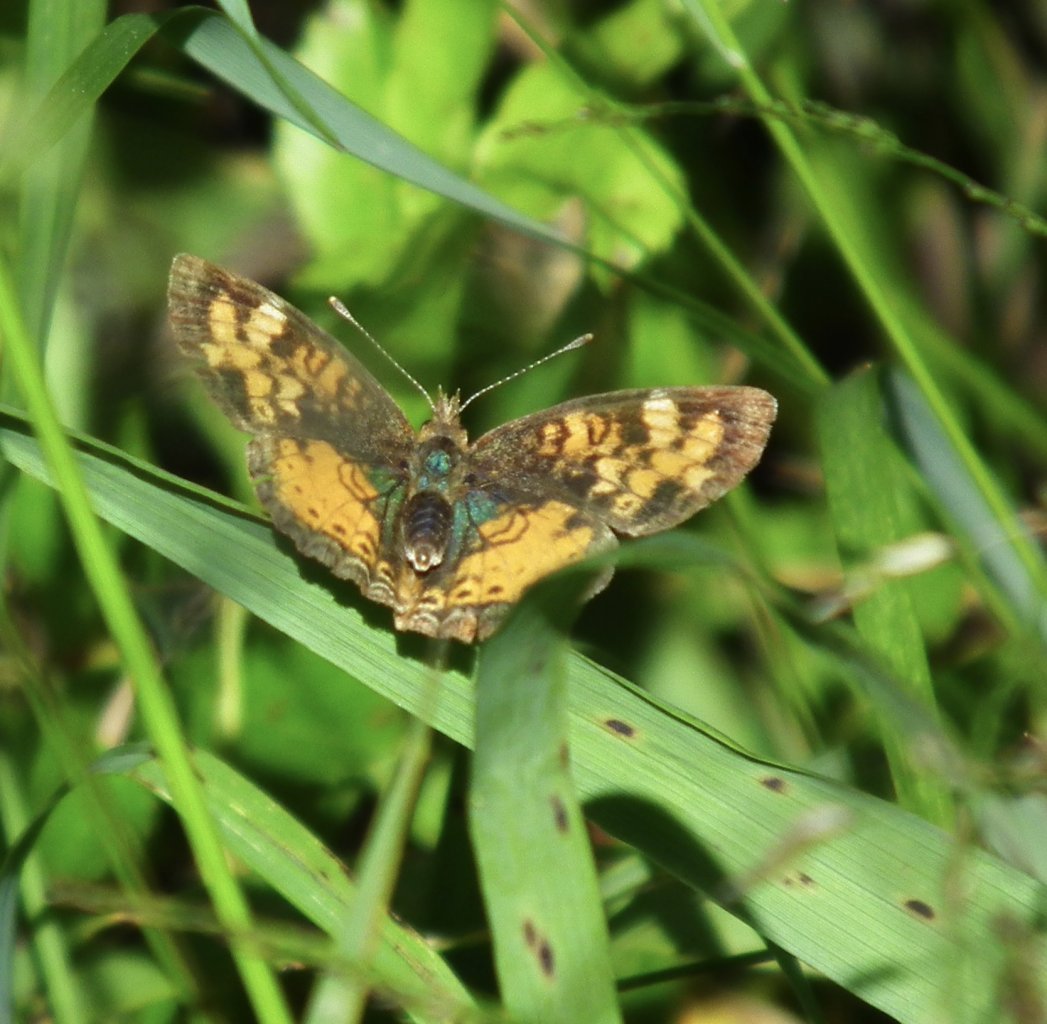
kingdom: Animalia
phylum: Arthropoda
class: Insecta
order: Lepidoptera
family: Nymphalidae
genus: Phyciodes
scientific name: Phyciodes tharos
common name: Northern Crescent
